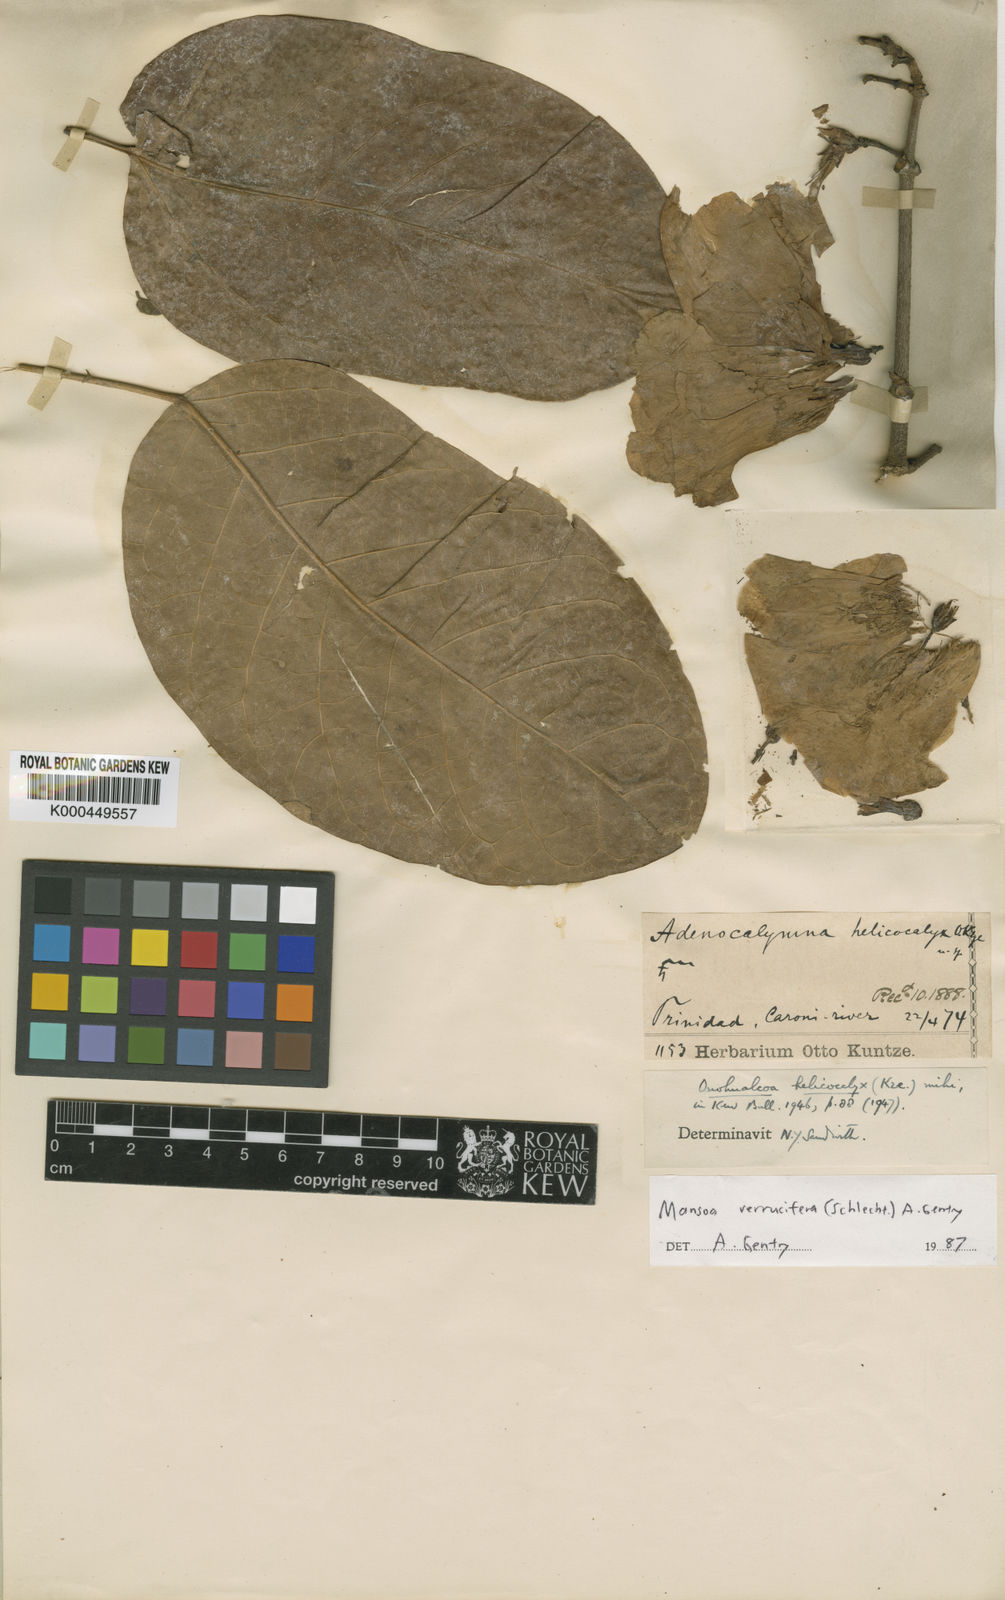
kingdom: Plantae
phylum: Tracheophyta
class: Magnoliopsida
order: Lamiales
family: Bignoniaceae
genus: Mansoa
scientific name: Mansoa verrucifera
